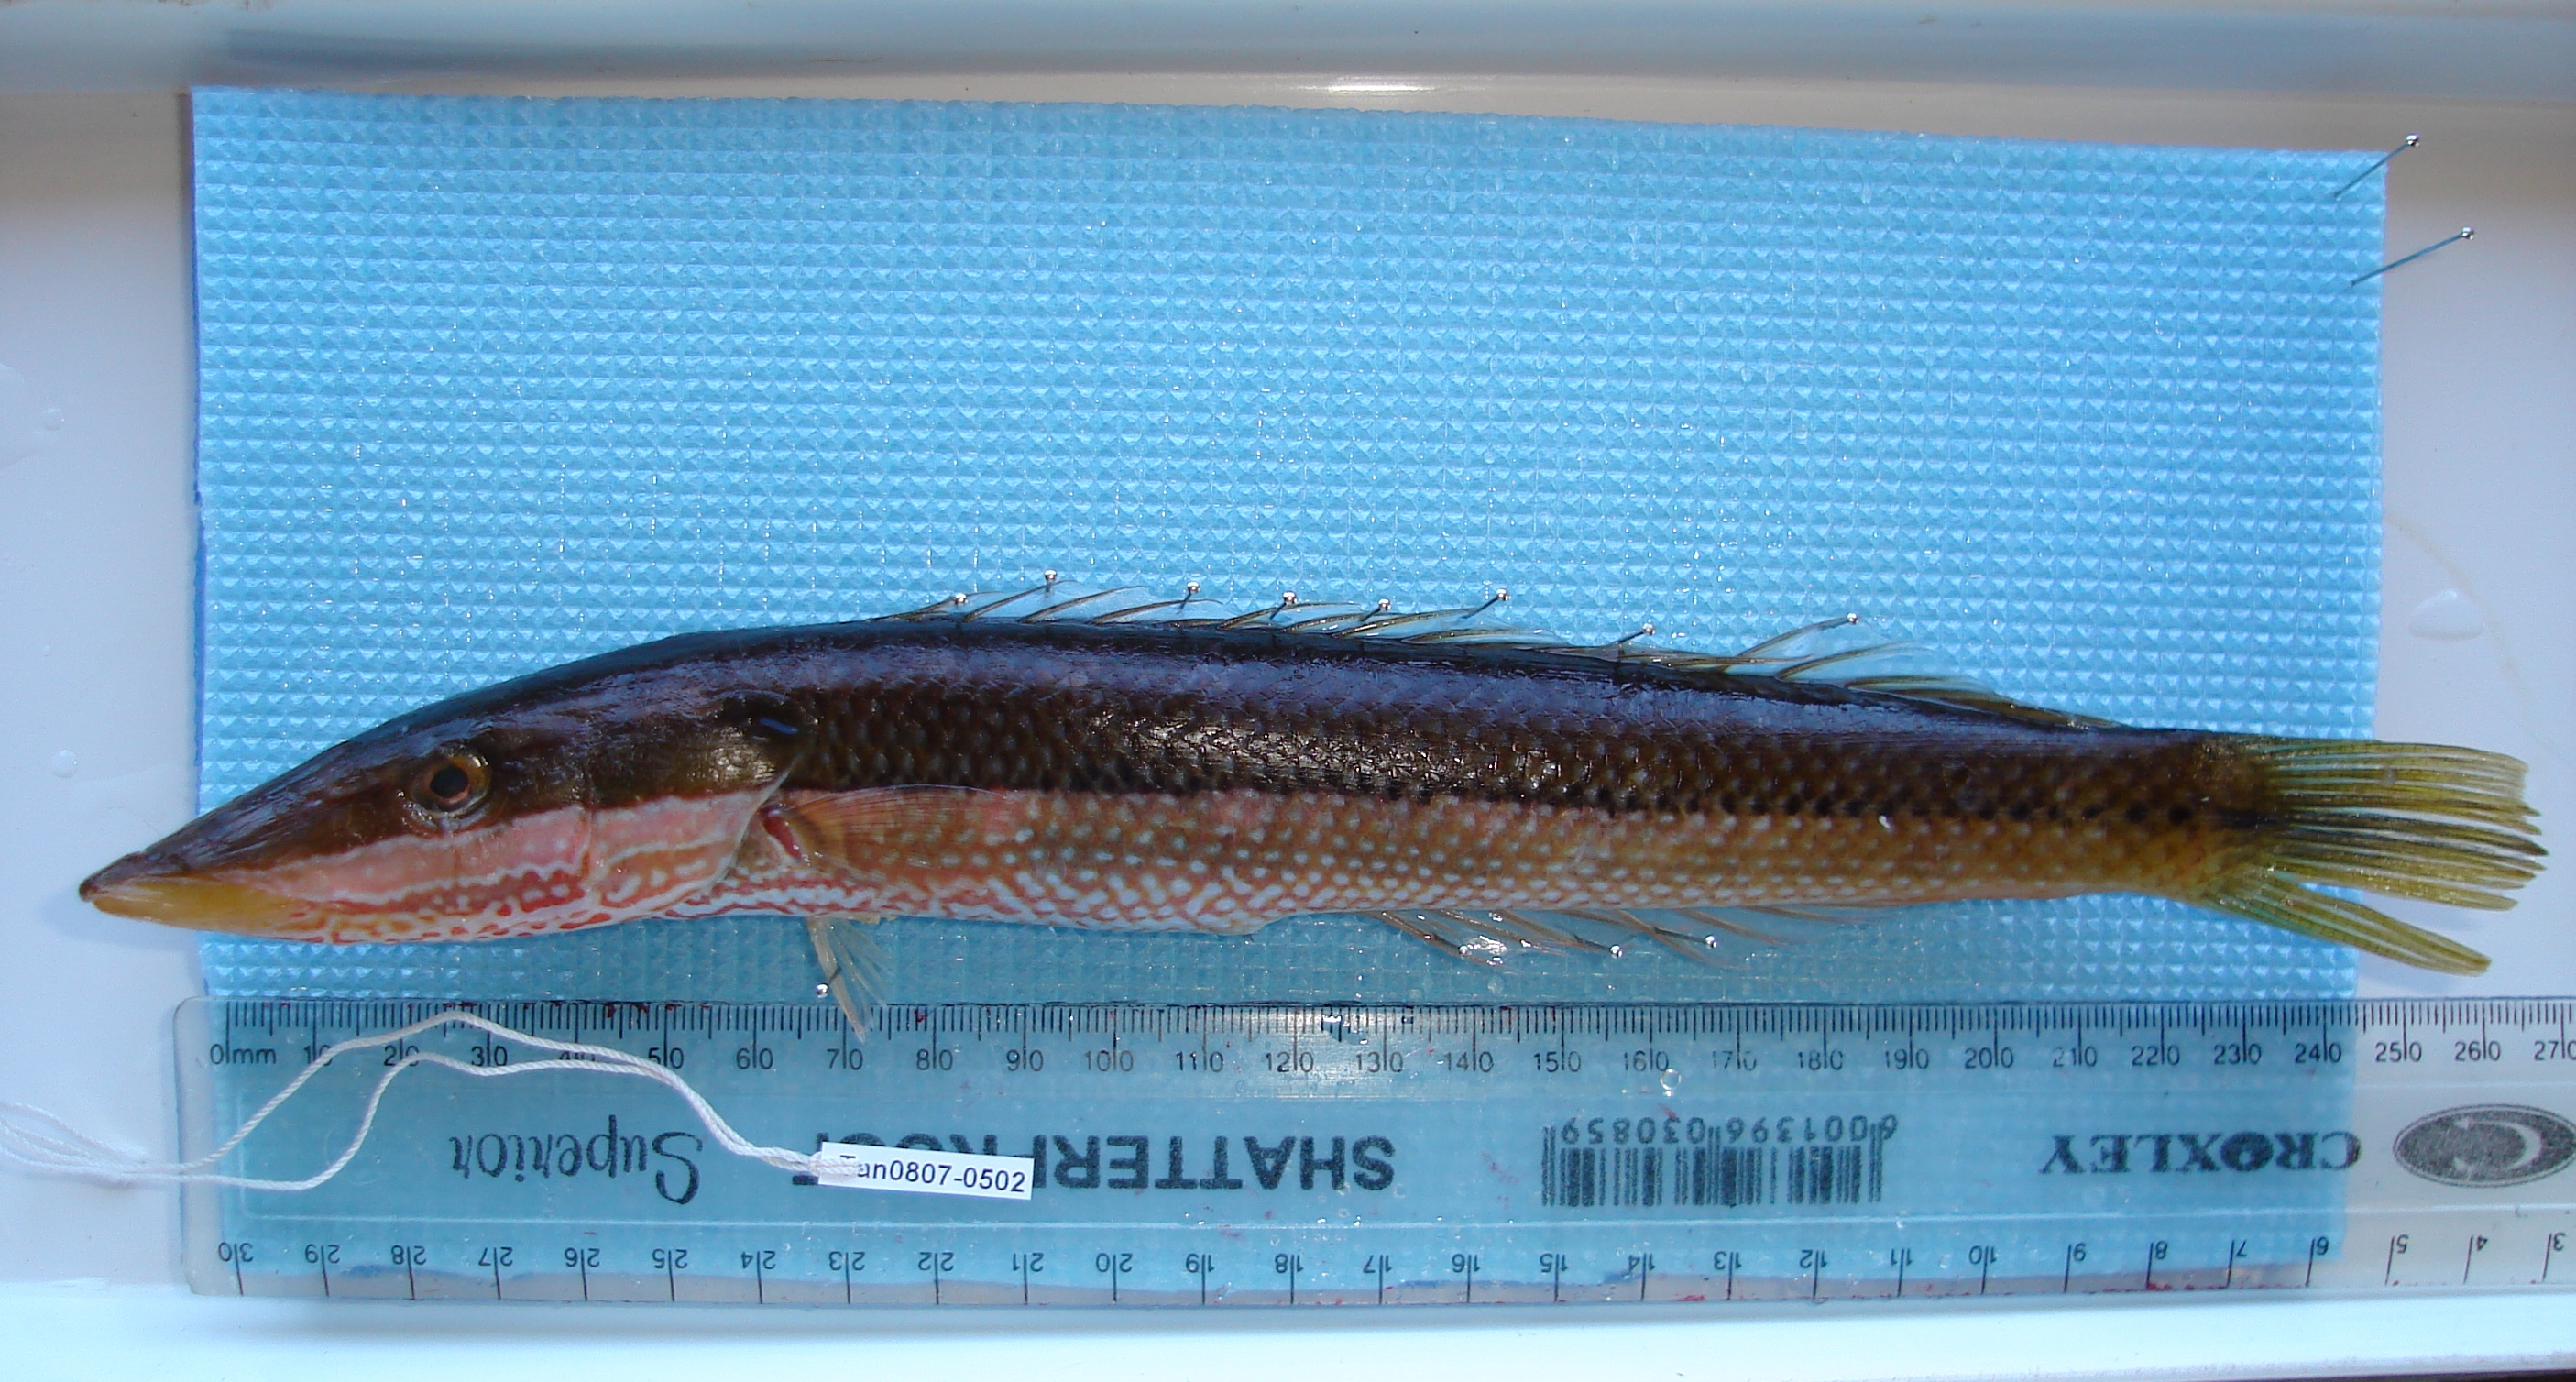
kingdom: Animalia
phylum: Chordata
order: Perciformes
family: Labridae
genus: Cheilio
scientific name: Cheilio inermis
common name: Cigar wrasse
